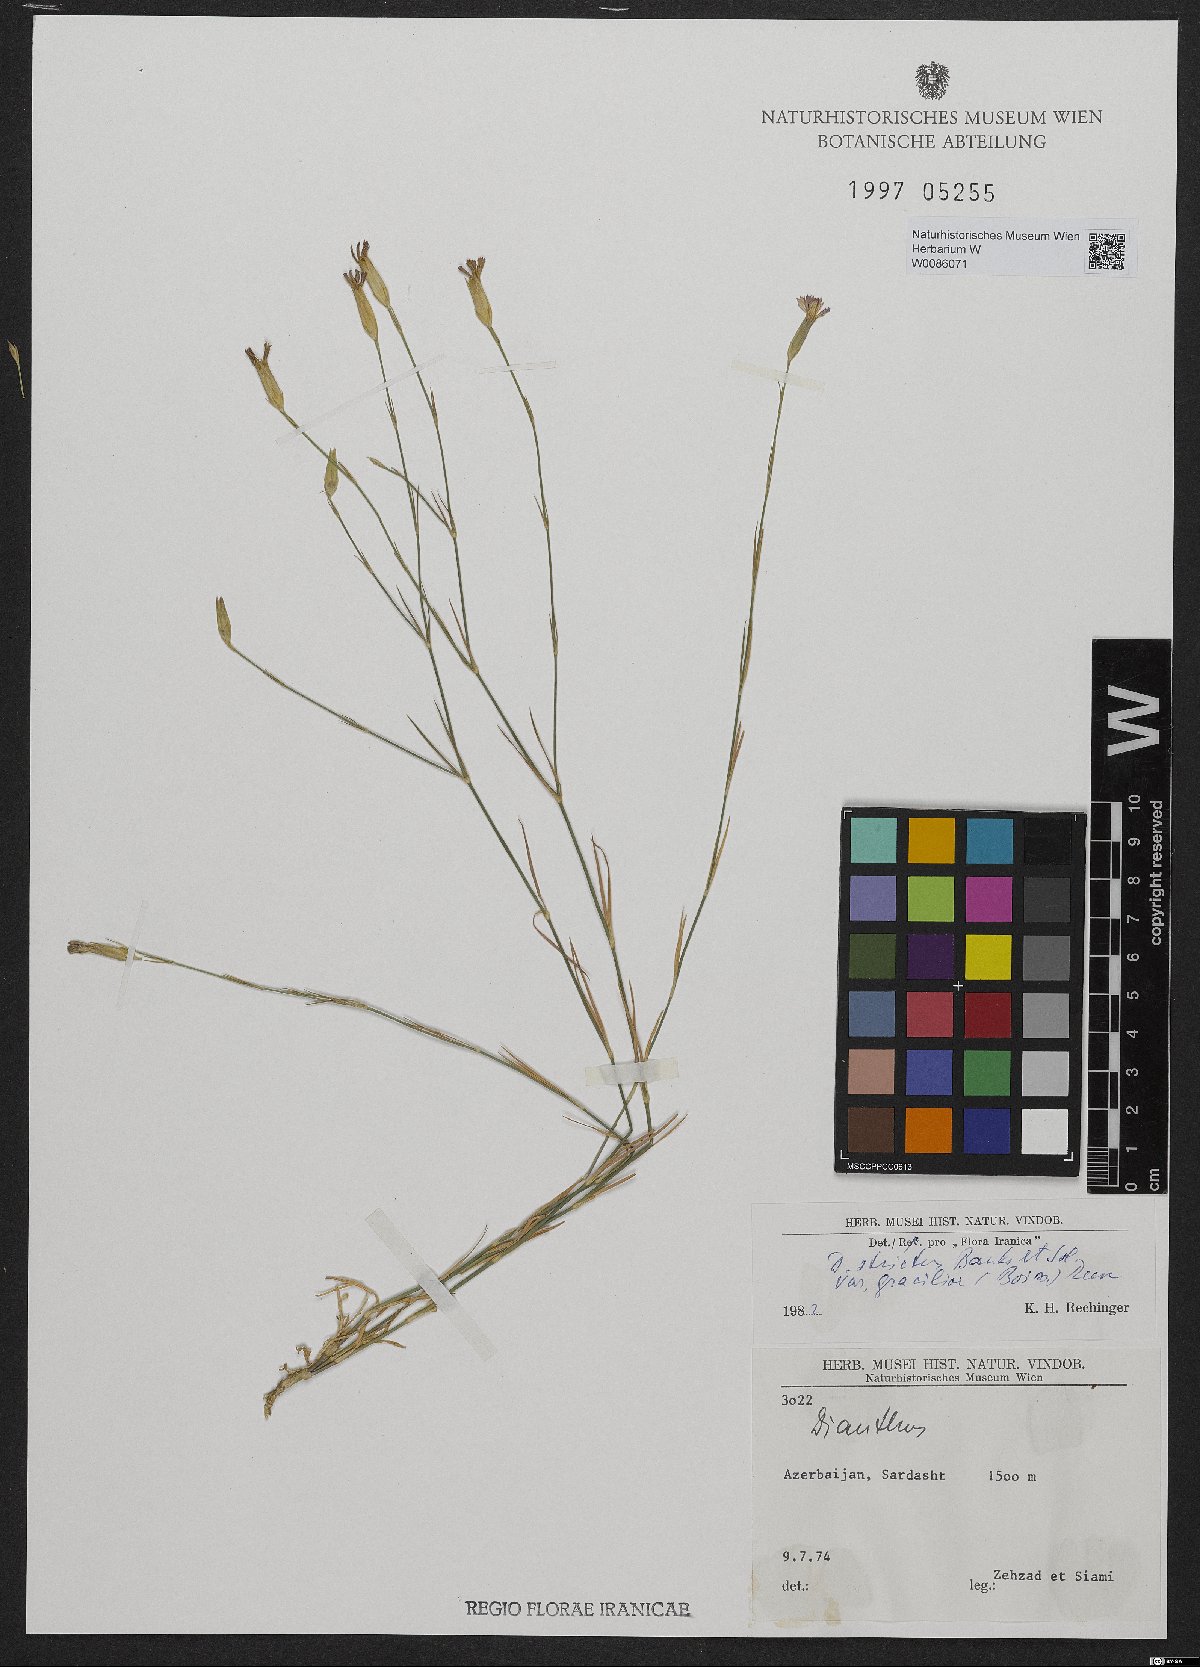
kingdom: Plantae
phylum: Tracheophyta
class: Magnoliopsida
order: Caryophyllales
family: Caryophyllaceae
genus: Dianthus
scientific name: Dianthus strictus
